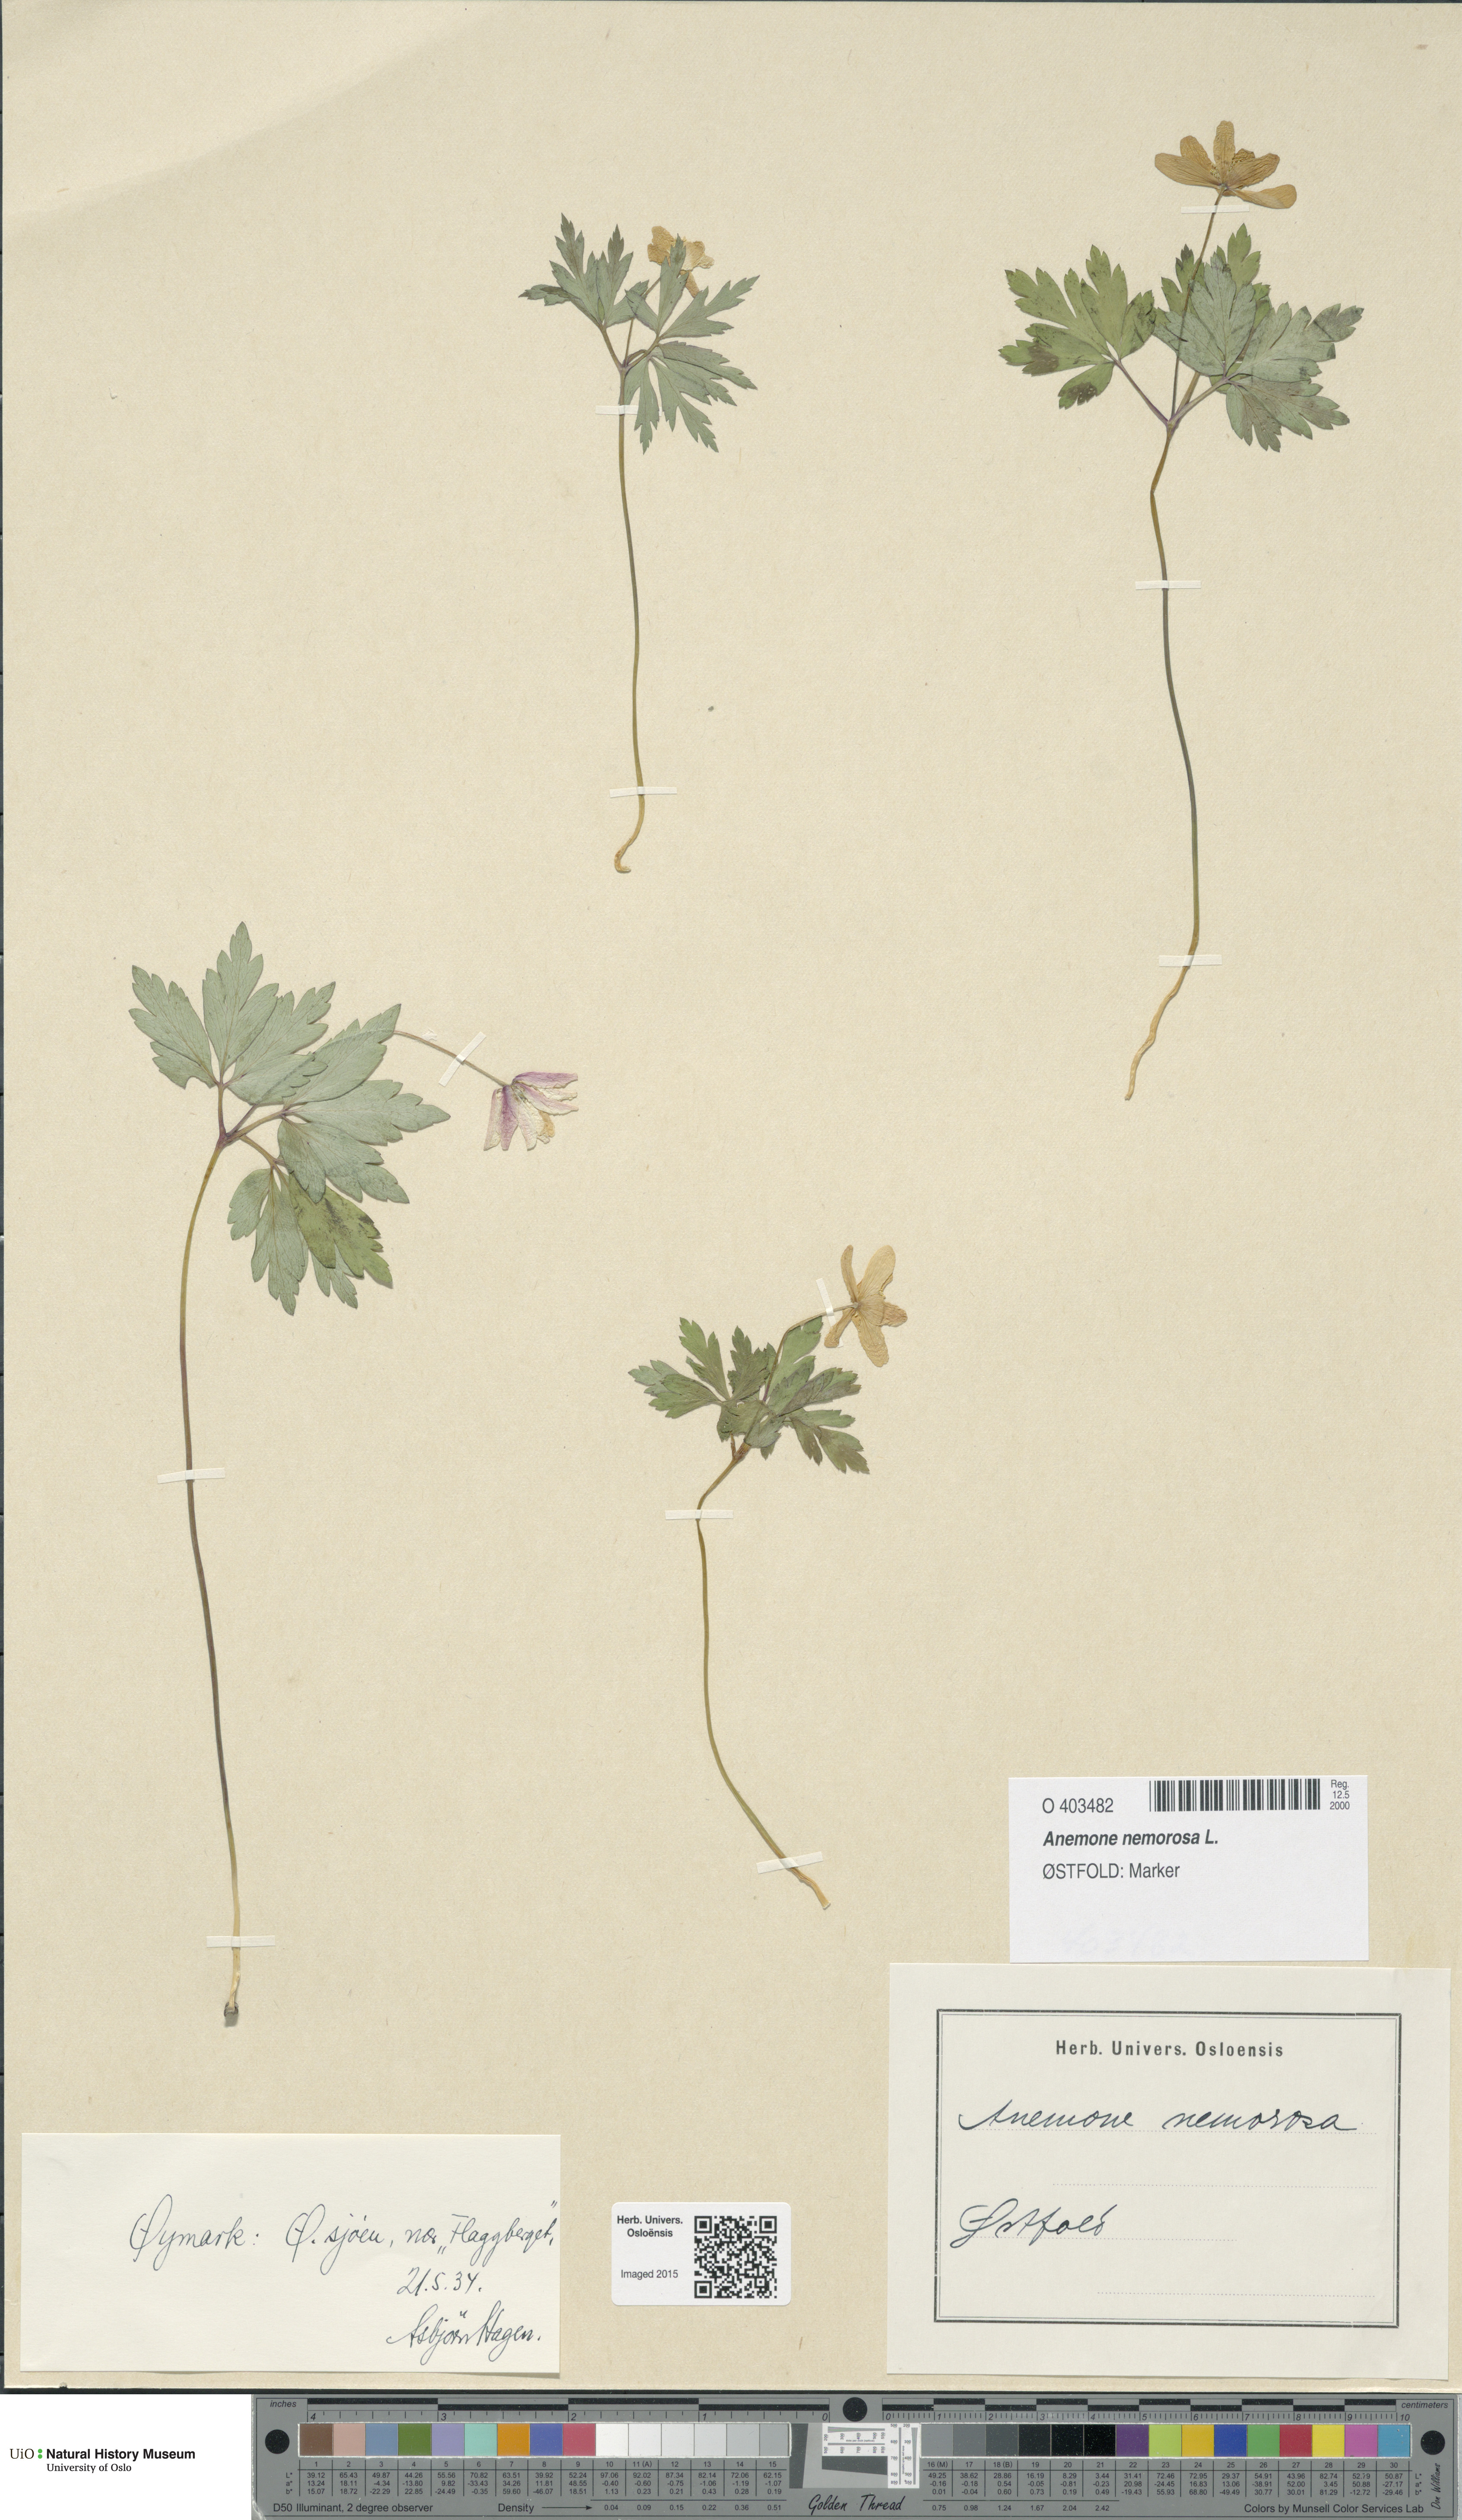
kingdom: Plantae
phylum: Tracheophyta
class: Magnoliopsida
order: Ranunculales
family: Ranunculaceae
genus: Anemone
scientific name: Anemone nemorosa
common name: Wood anemone
